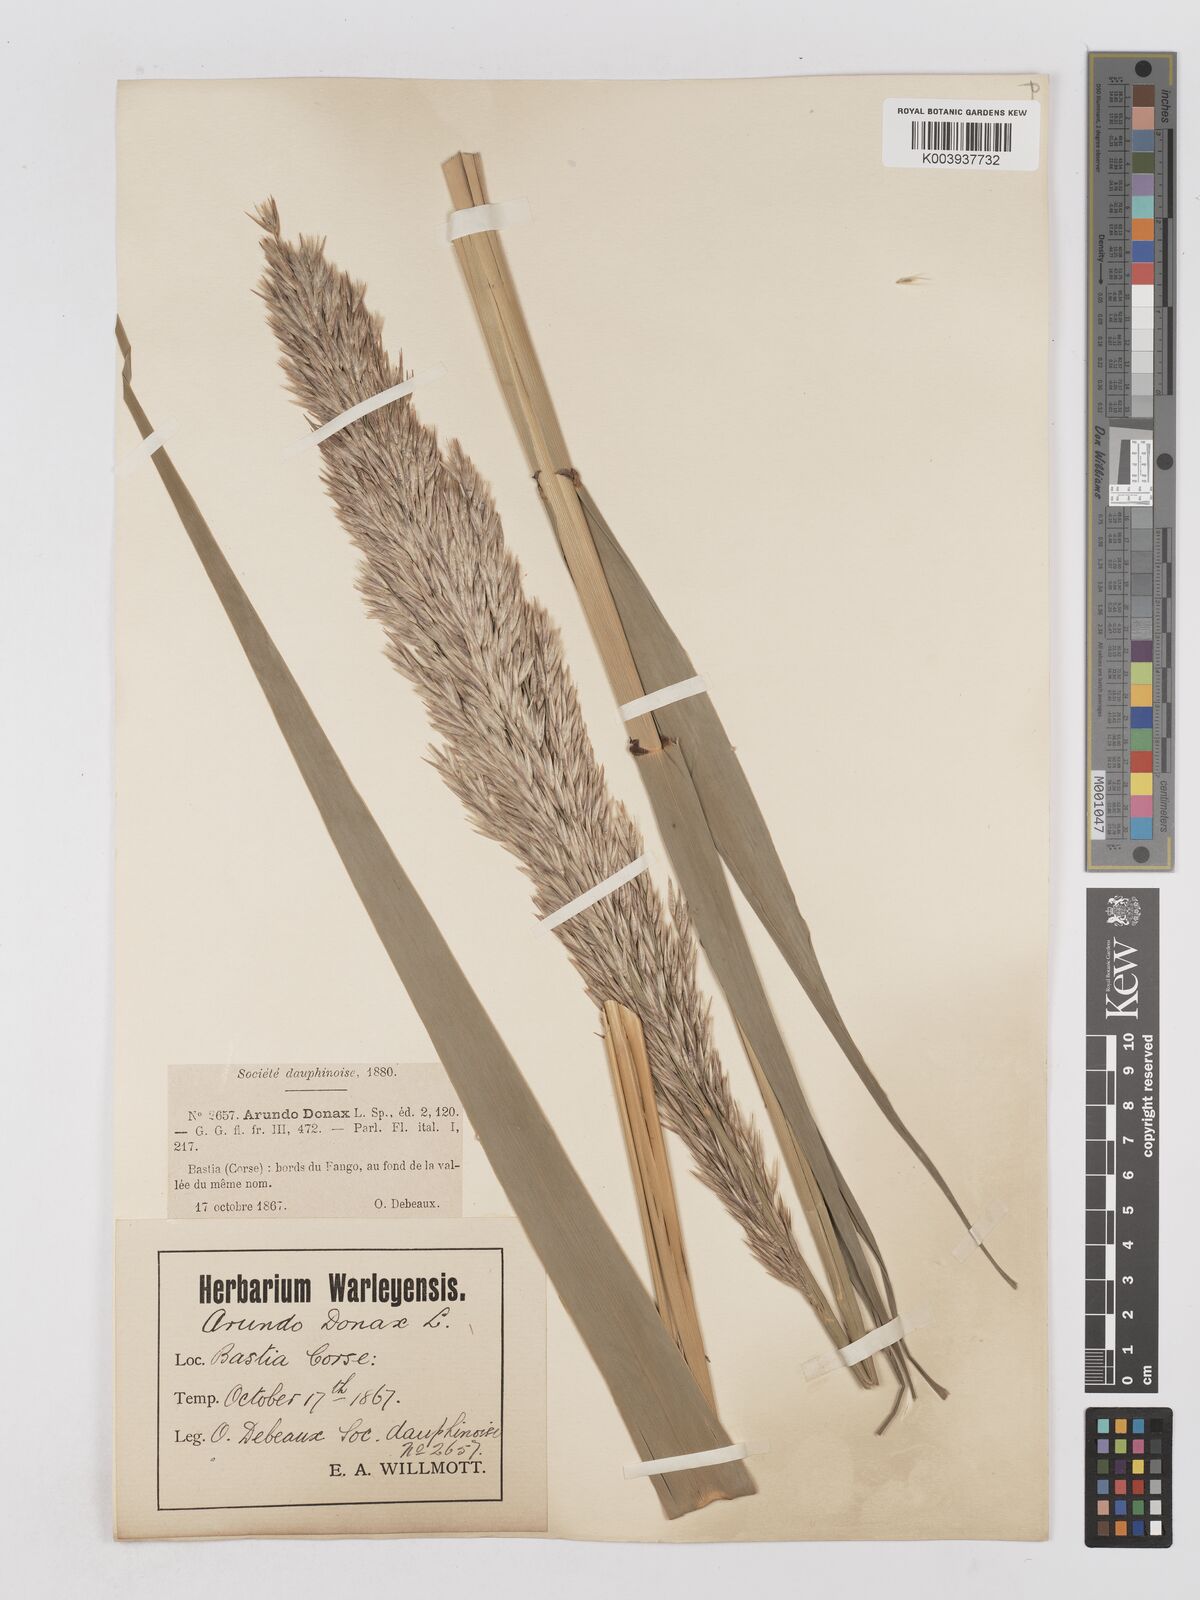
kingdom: Plantae
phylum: Tracheophyta
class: Liliopsida
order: Poales
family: Poaceae
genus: Arundo
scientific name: Arundo donax
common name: Giant reed
